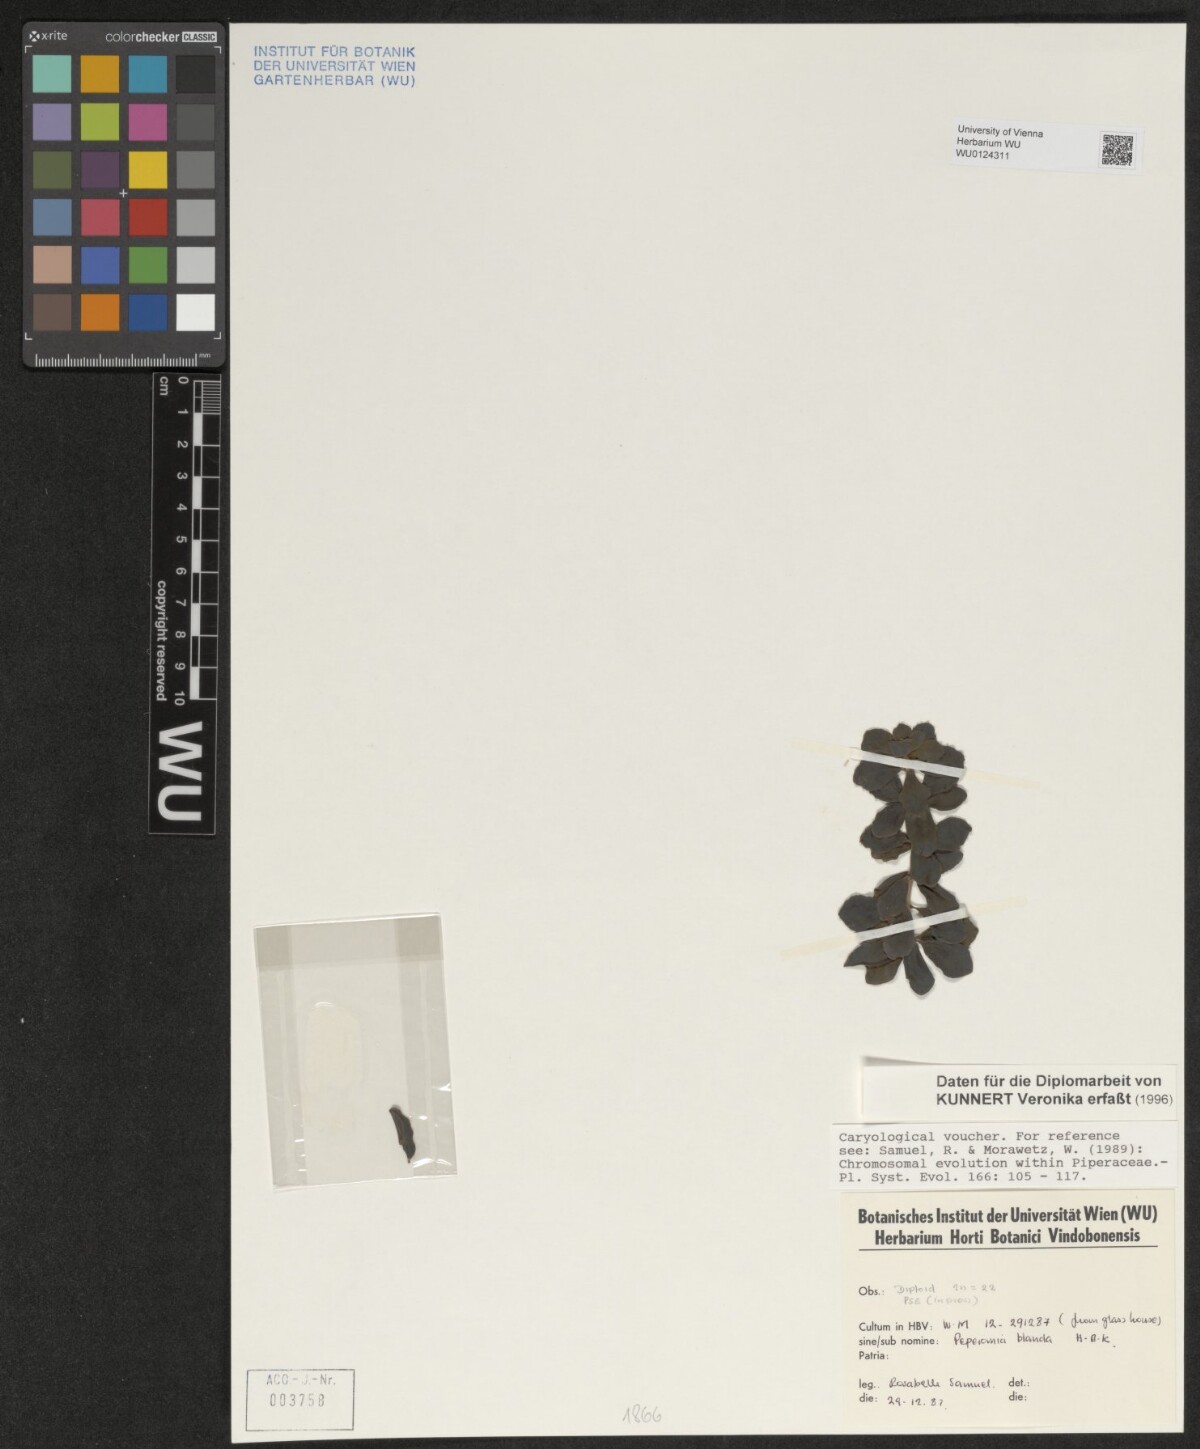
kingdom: Plantae
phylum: Tracheophyta
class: Magnoliopsida
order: Piperales
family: Piperaceae
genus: Peperomia
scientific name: Peperomia blanda
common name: Arid-land peperomia
